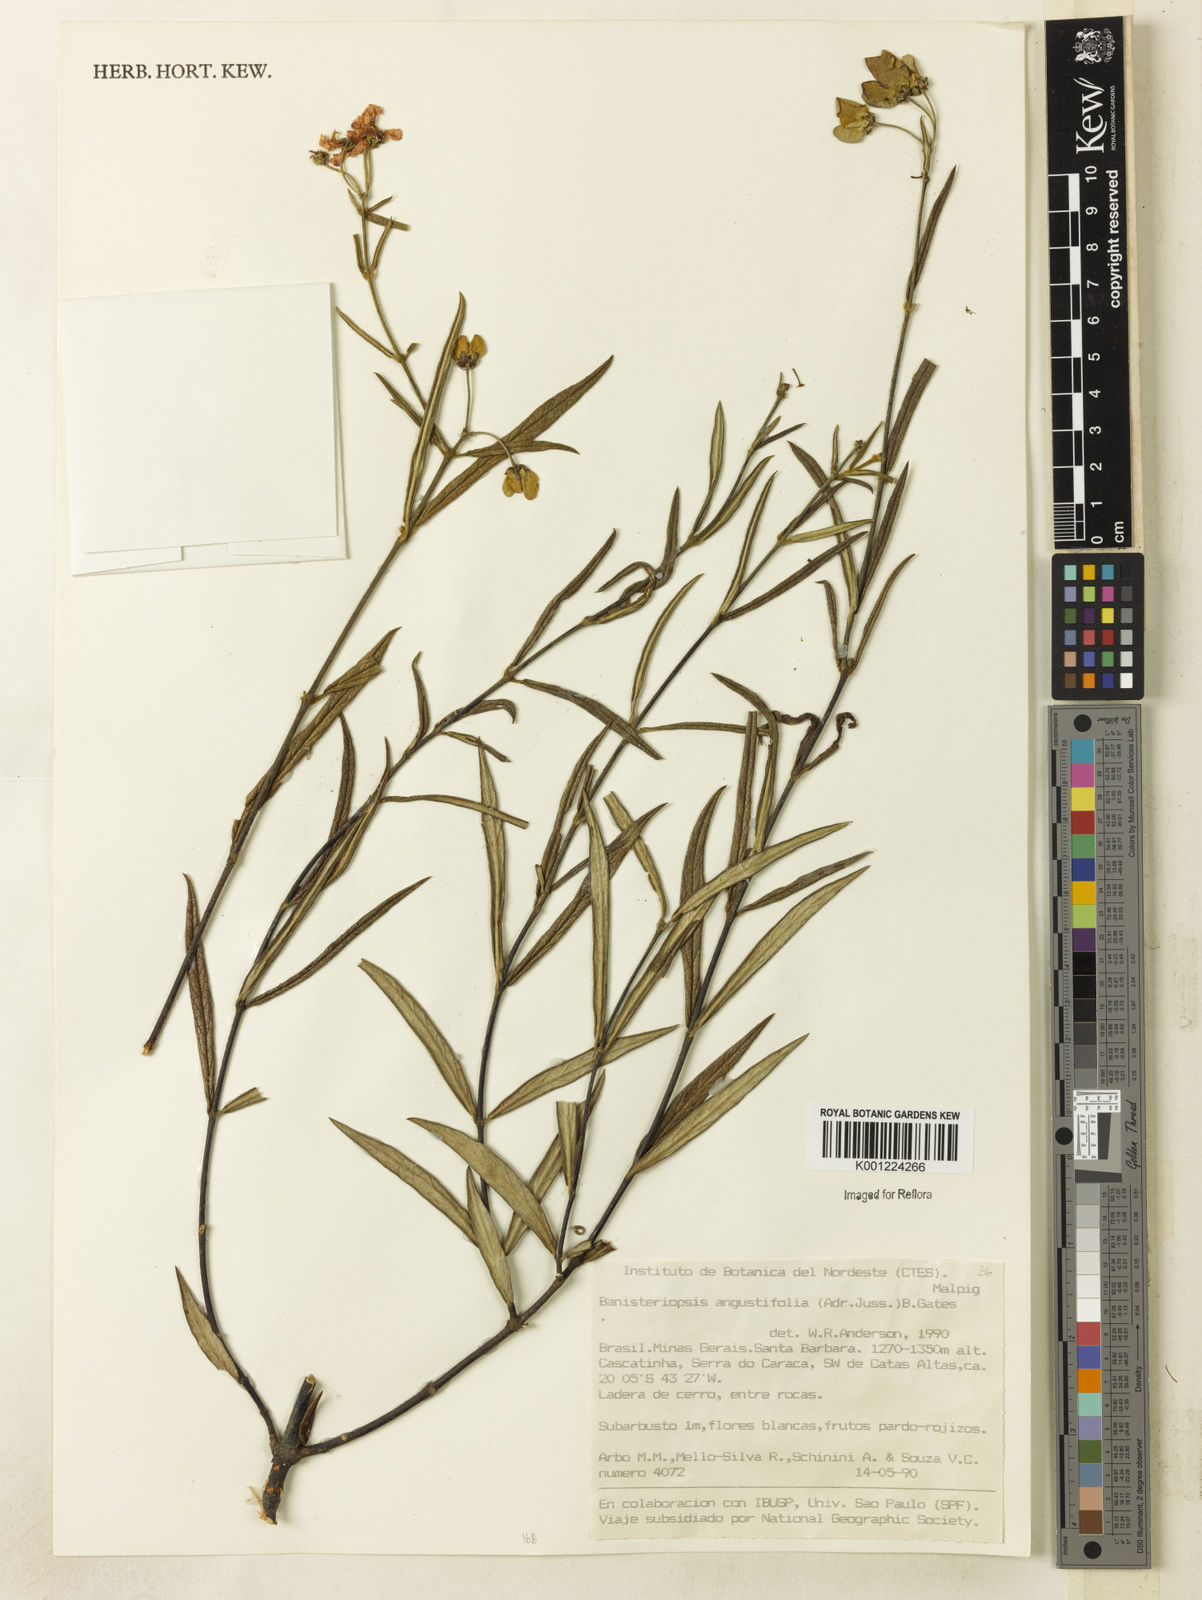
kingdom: Plantae
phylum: Tracheophyta
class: Magnoliopsida
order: Malpighiales
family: Malpighiaceae
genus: Banisteriopsis
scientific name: Banisteriopsis angustifolia
